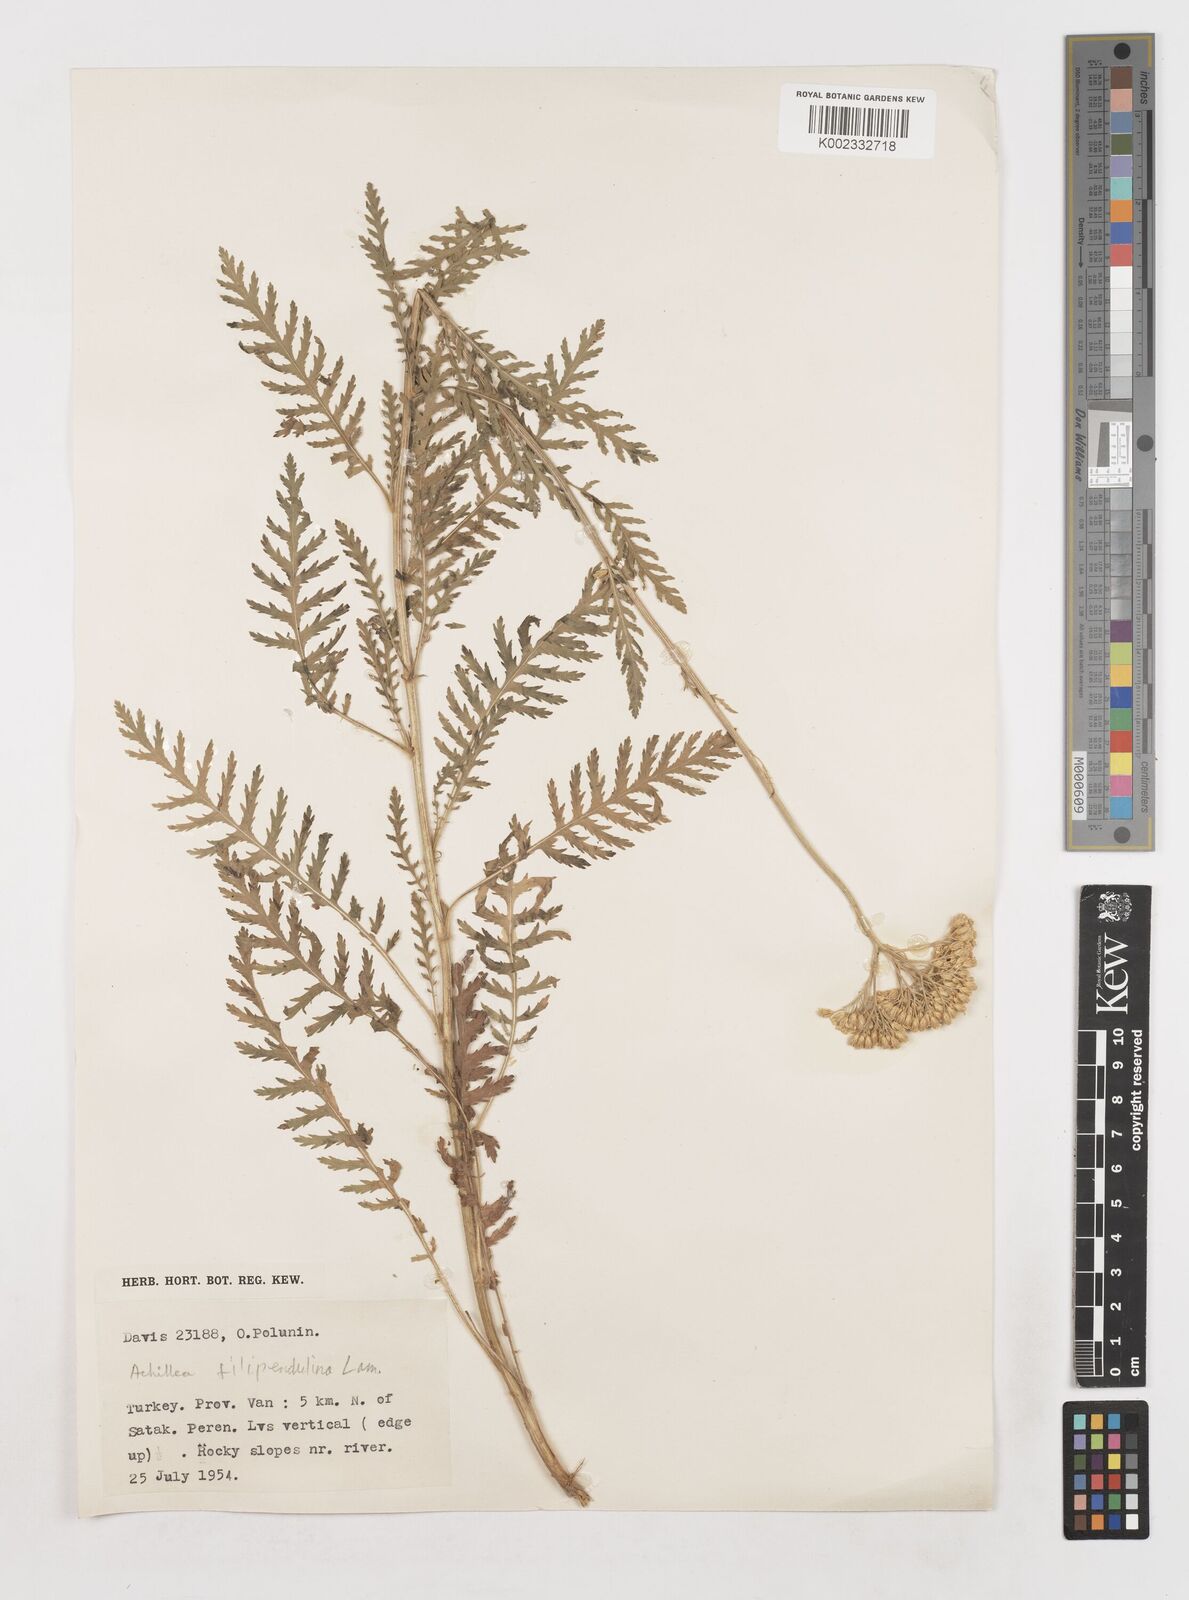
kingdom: Plantae
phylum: Tracheophyta
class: Magnoliopsida
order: Asterales
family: Asteraceae
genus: Achillea
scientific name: Achillea filipendulina
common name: Fernleaf yarrow
